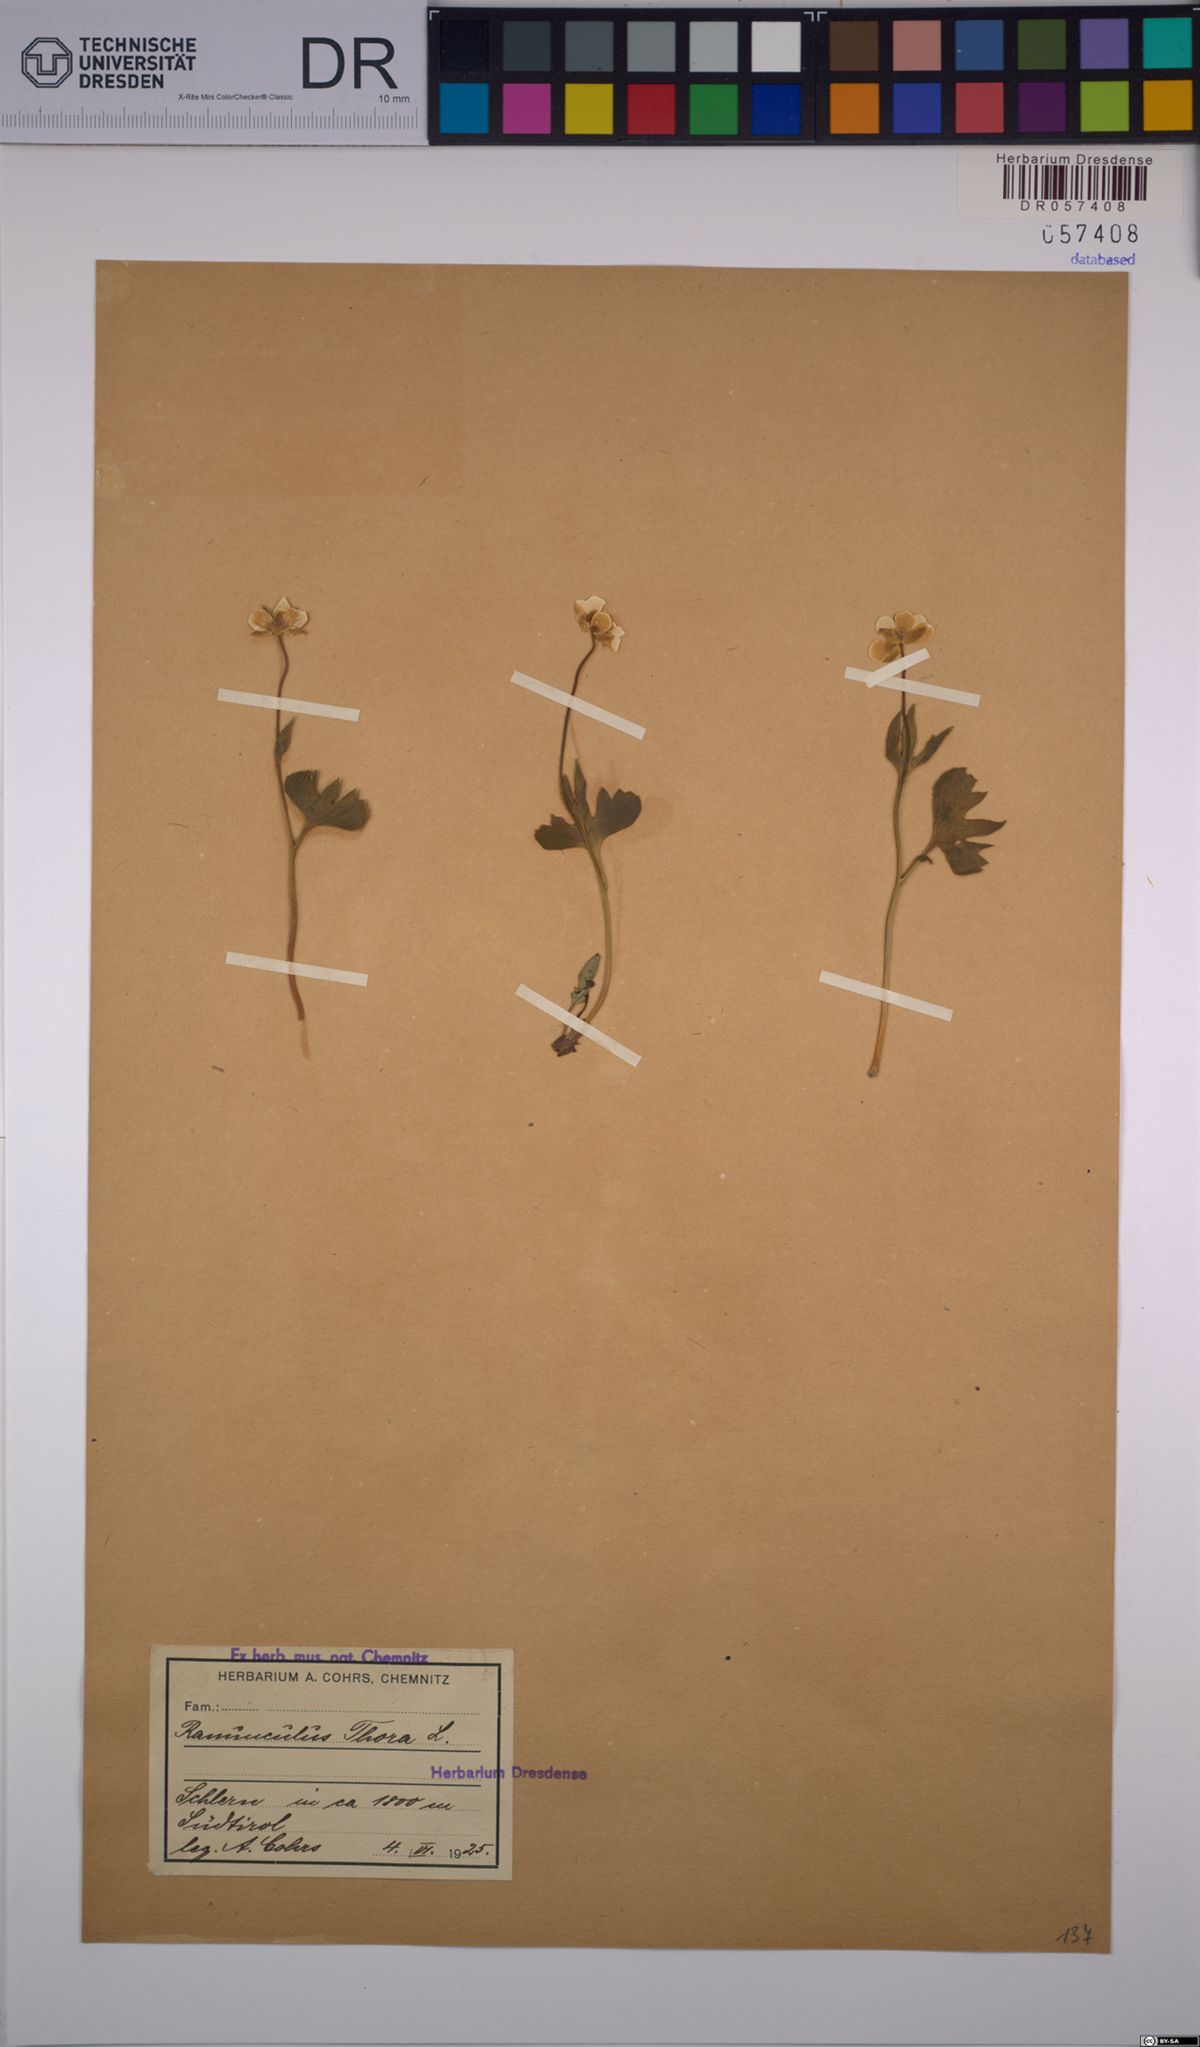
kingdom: Plantae
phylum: Tracheophyta
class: Magnoliopsida
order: Ranunculales
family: Ranunculaceae
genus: Ranunculus
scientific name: Ranunculus thora
